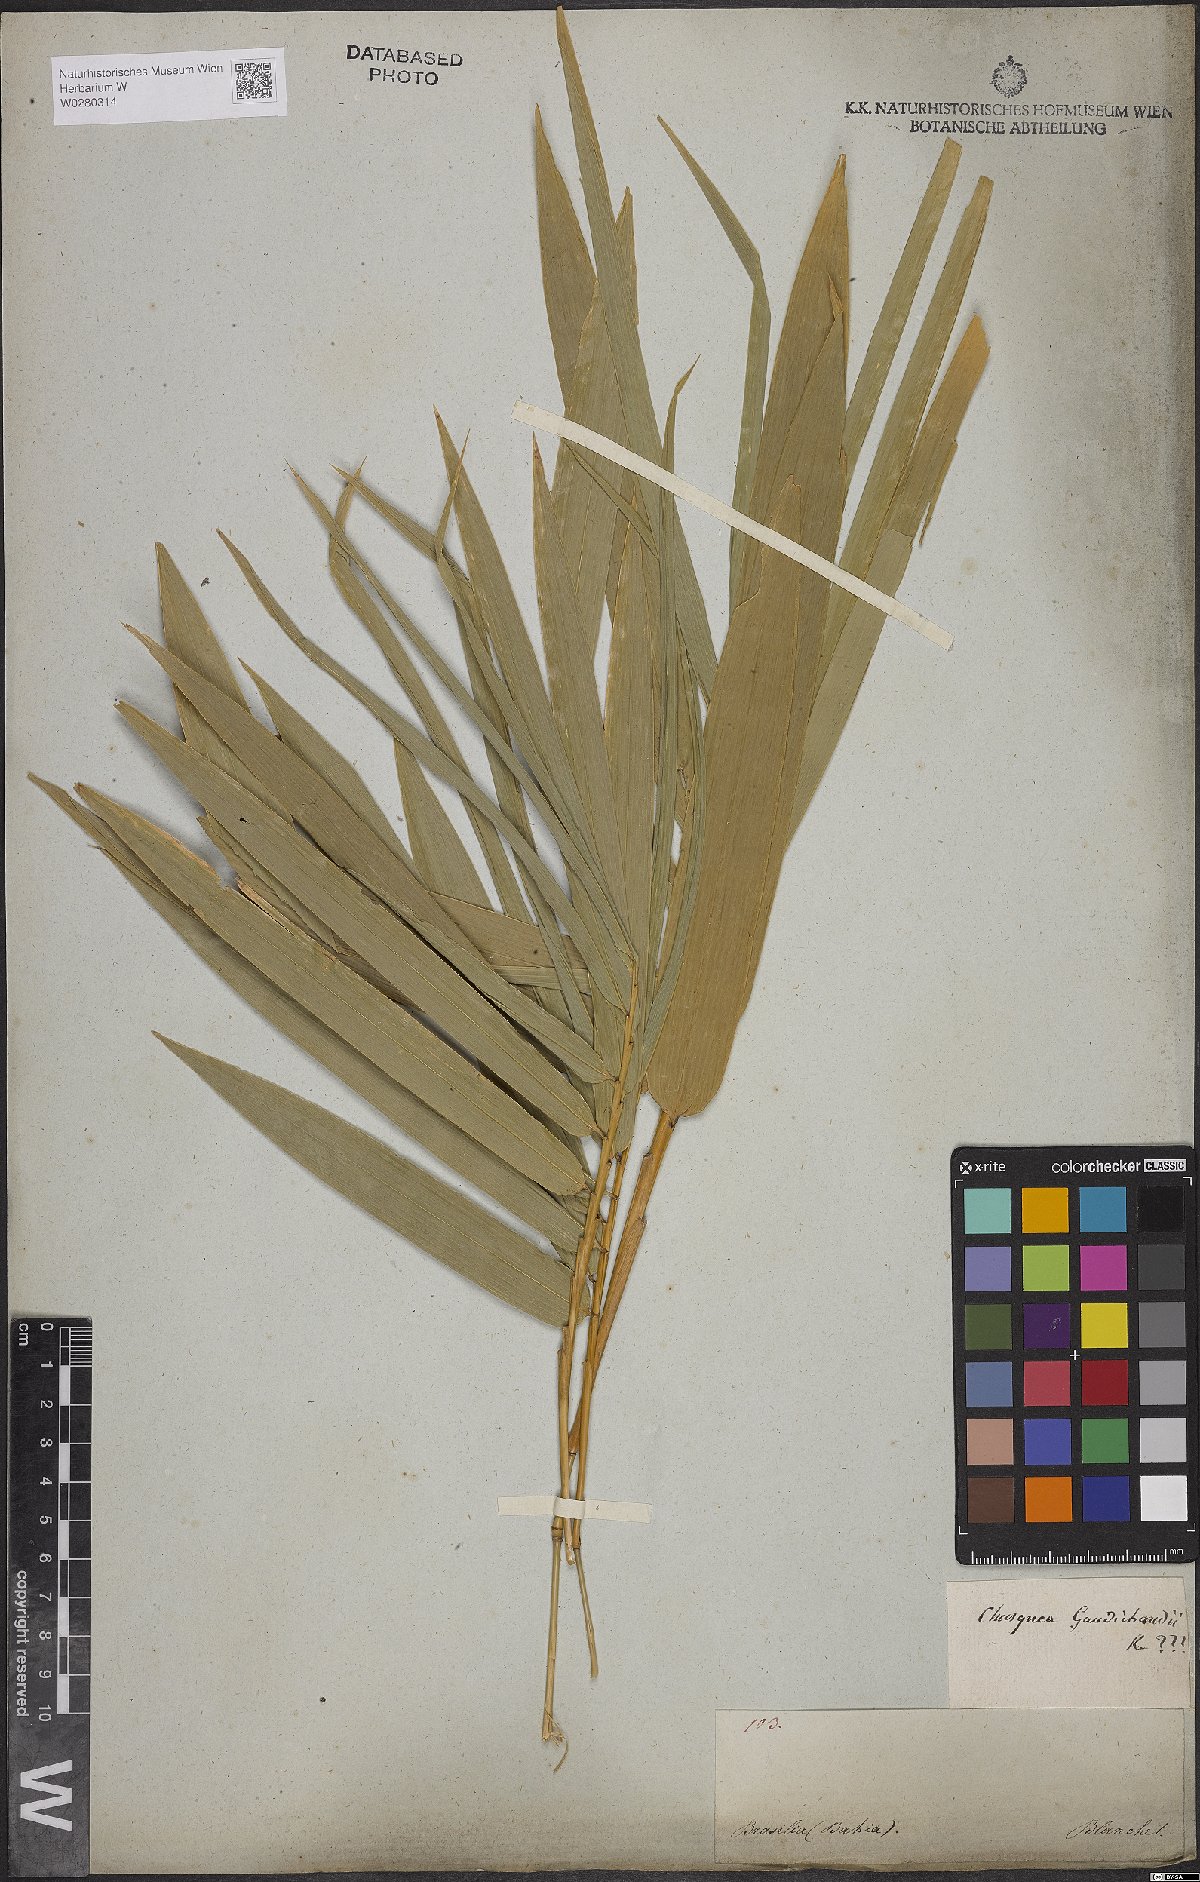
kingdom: Plantae
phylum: Tracheophyta
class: Liliopsida
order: Poales
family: Poaceae
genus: Chusquea
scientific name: Chusquea bambusoides
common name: Brazil scrambling bamboo
